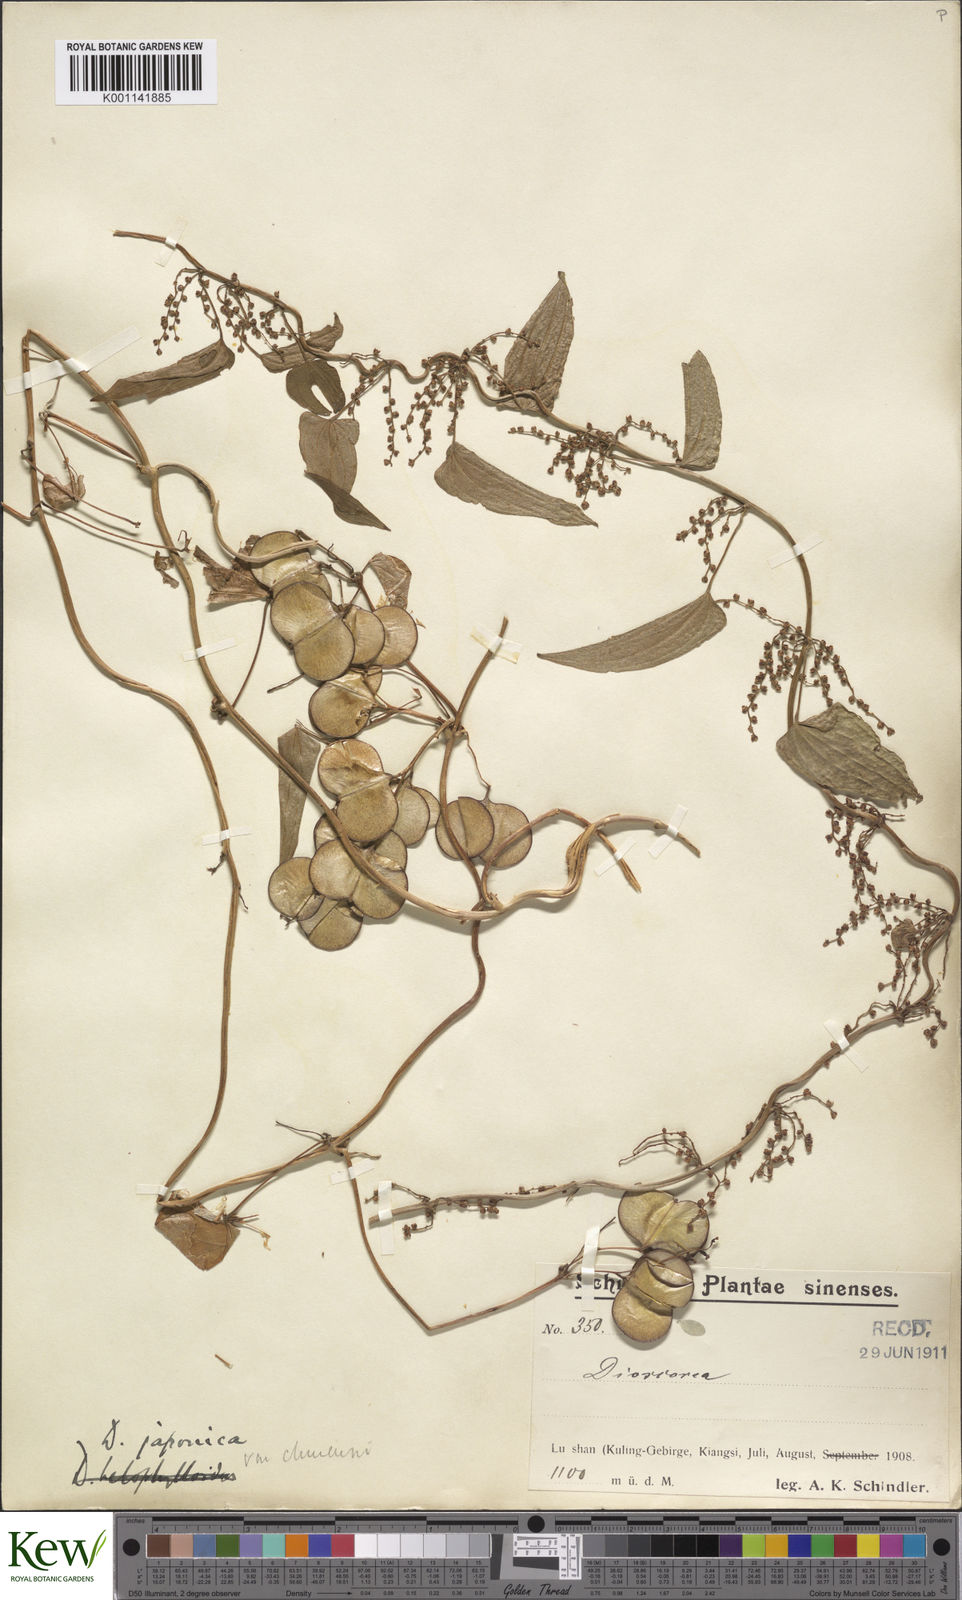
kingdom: Plantae
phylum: Tracheophyta
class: Liliopsida
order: Dioscoreales
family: Dioscoreaceae
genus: Dioscorea
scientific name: Dioscorea japonica
